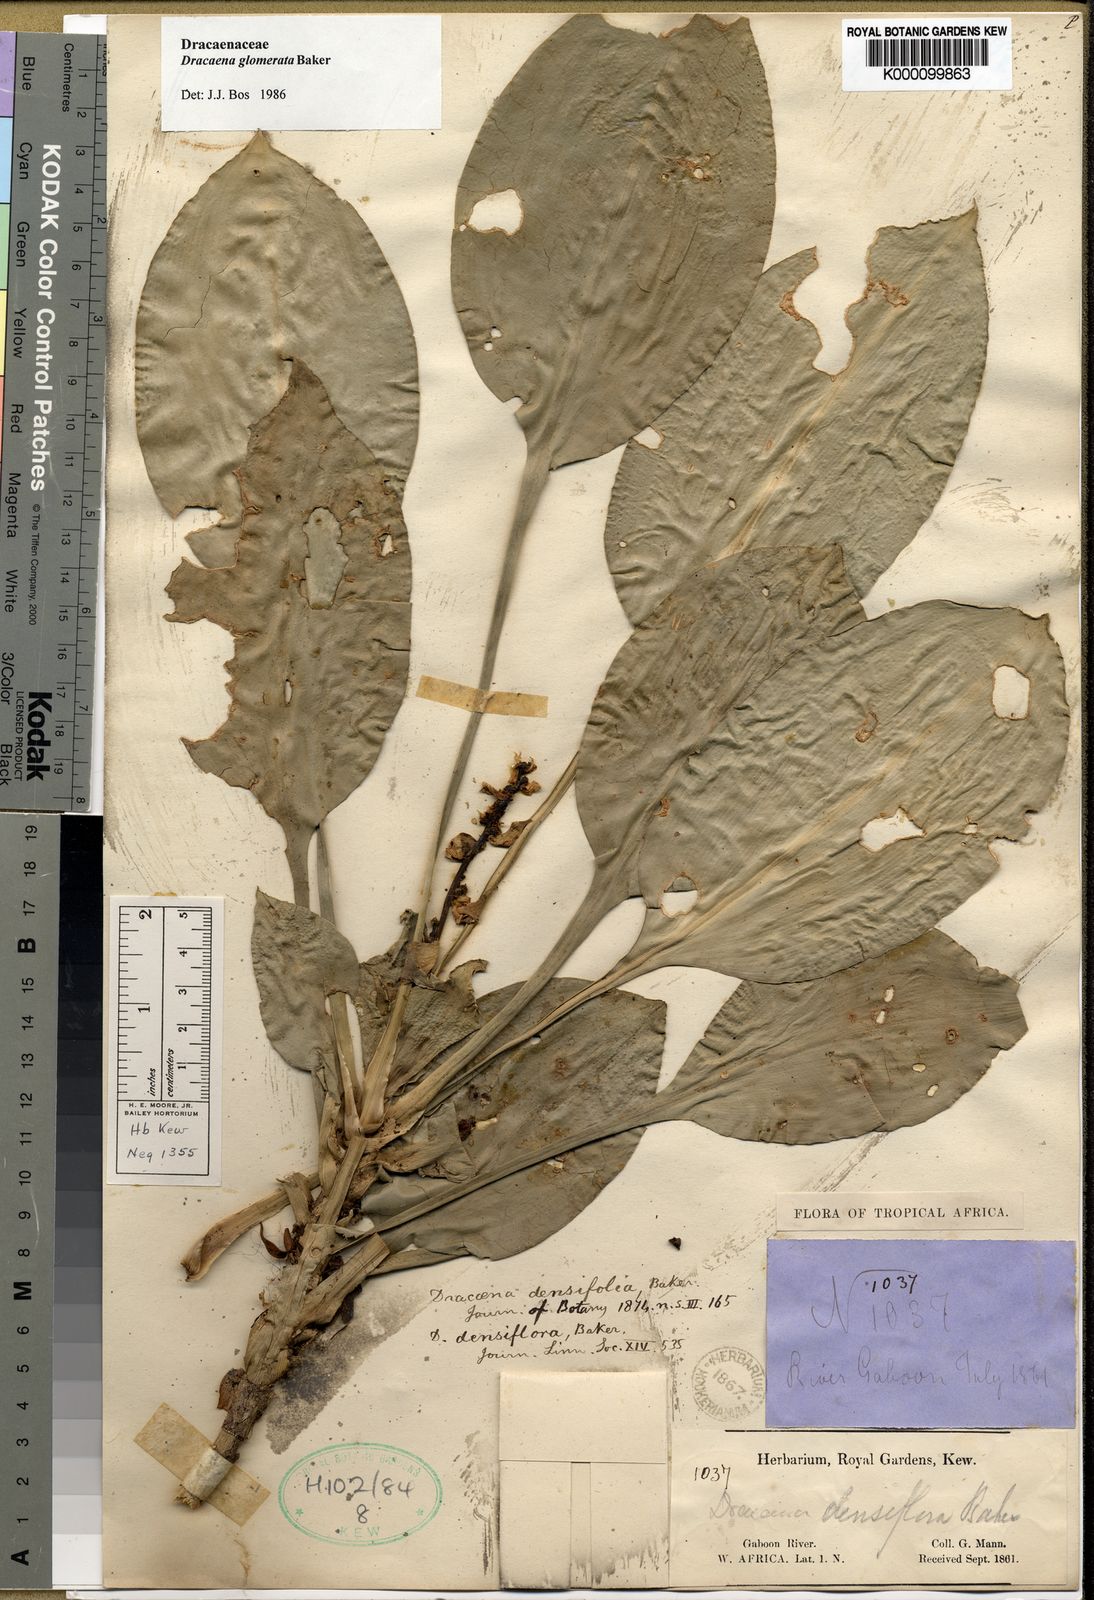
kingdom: Plantae
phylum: Tracheophyta
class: Liliopsida
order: Asparagales
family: Asparagaceae
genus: Dracaena
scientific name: Dracaena glomerata
